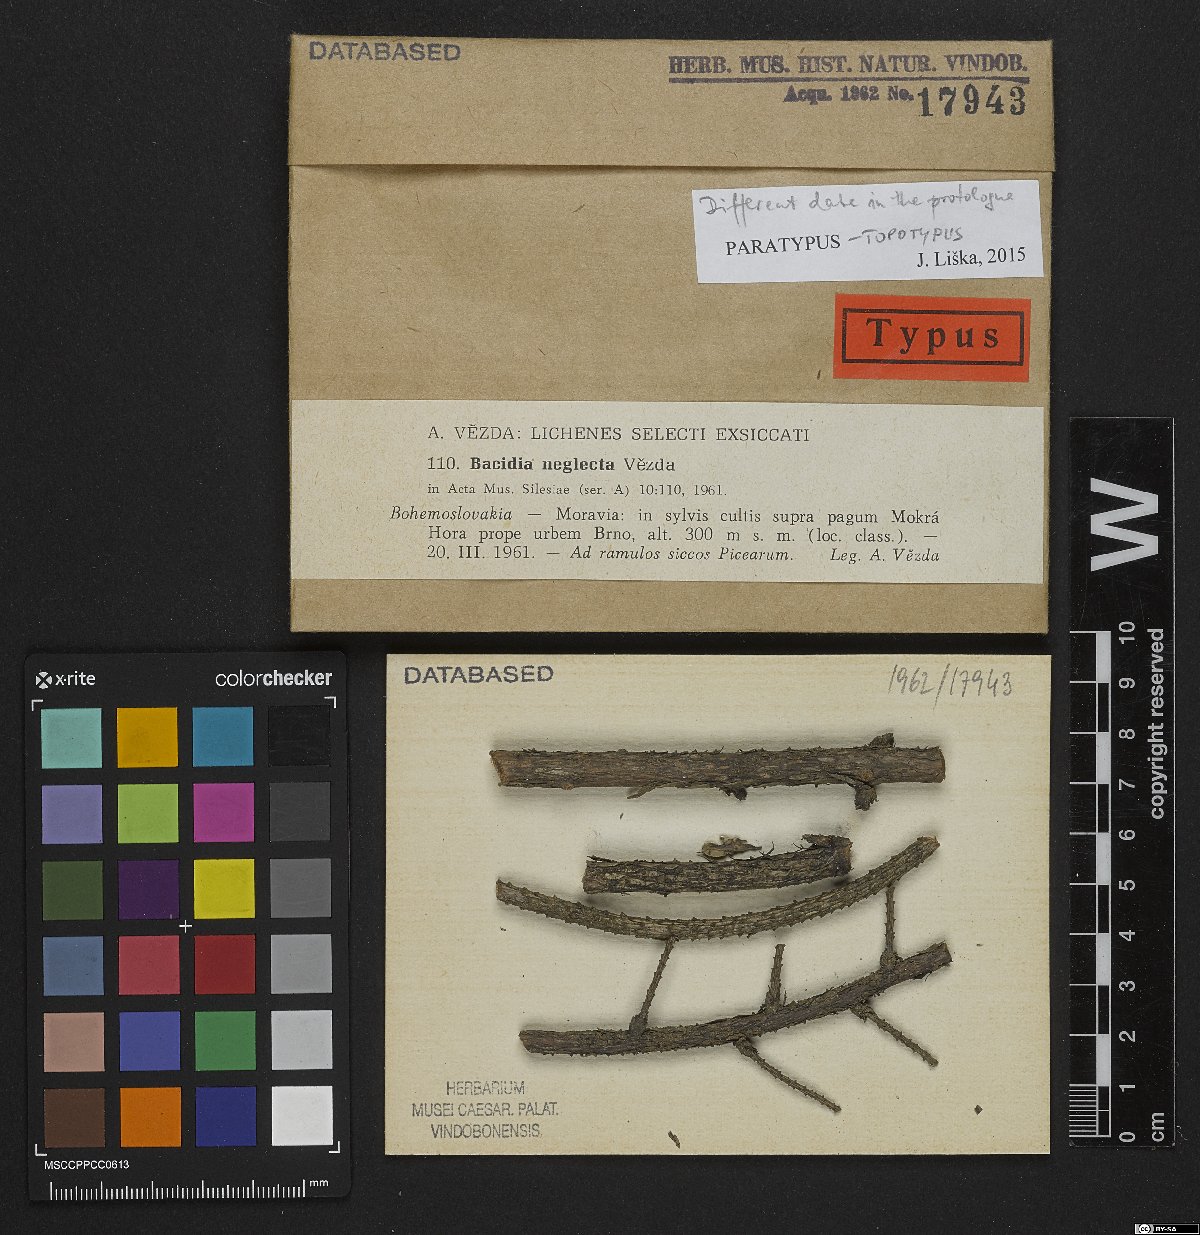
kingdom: Fungi
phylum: Ascomycota
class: Lecanoromycetes
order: Lecanorales
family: Ramalinaceae
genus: Bacidina
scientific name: Bacidina neglecta
